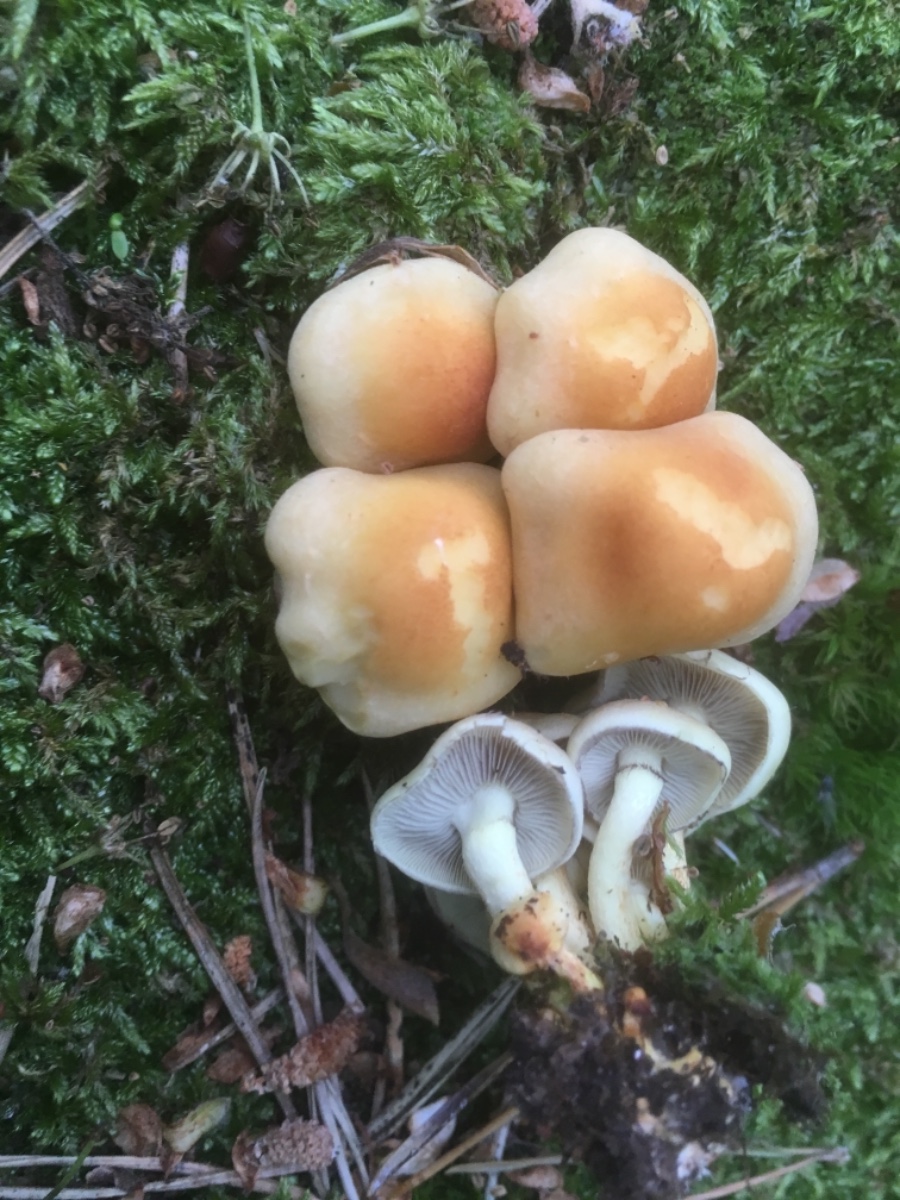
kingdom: Fungi
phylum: Basidiomycota
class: Agaricomycetes
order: Agaricales
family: Strophariaceae
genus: Hypholoma
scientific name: Hypholoma fasciculare
